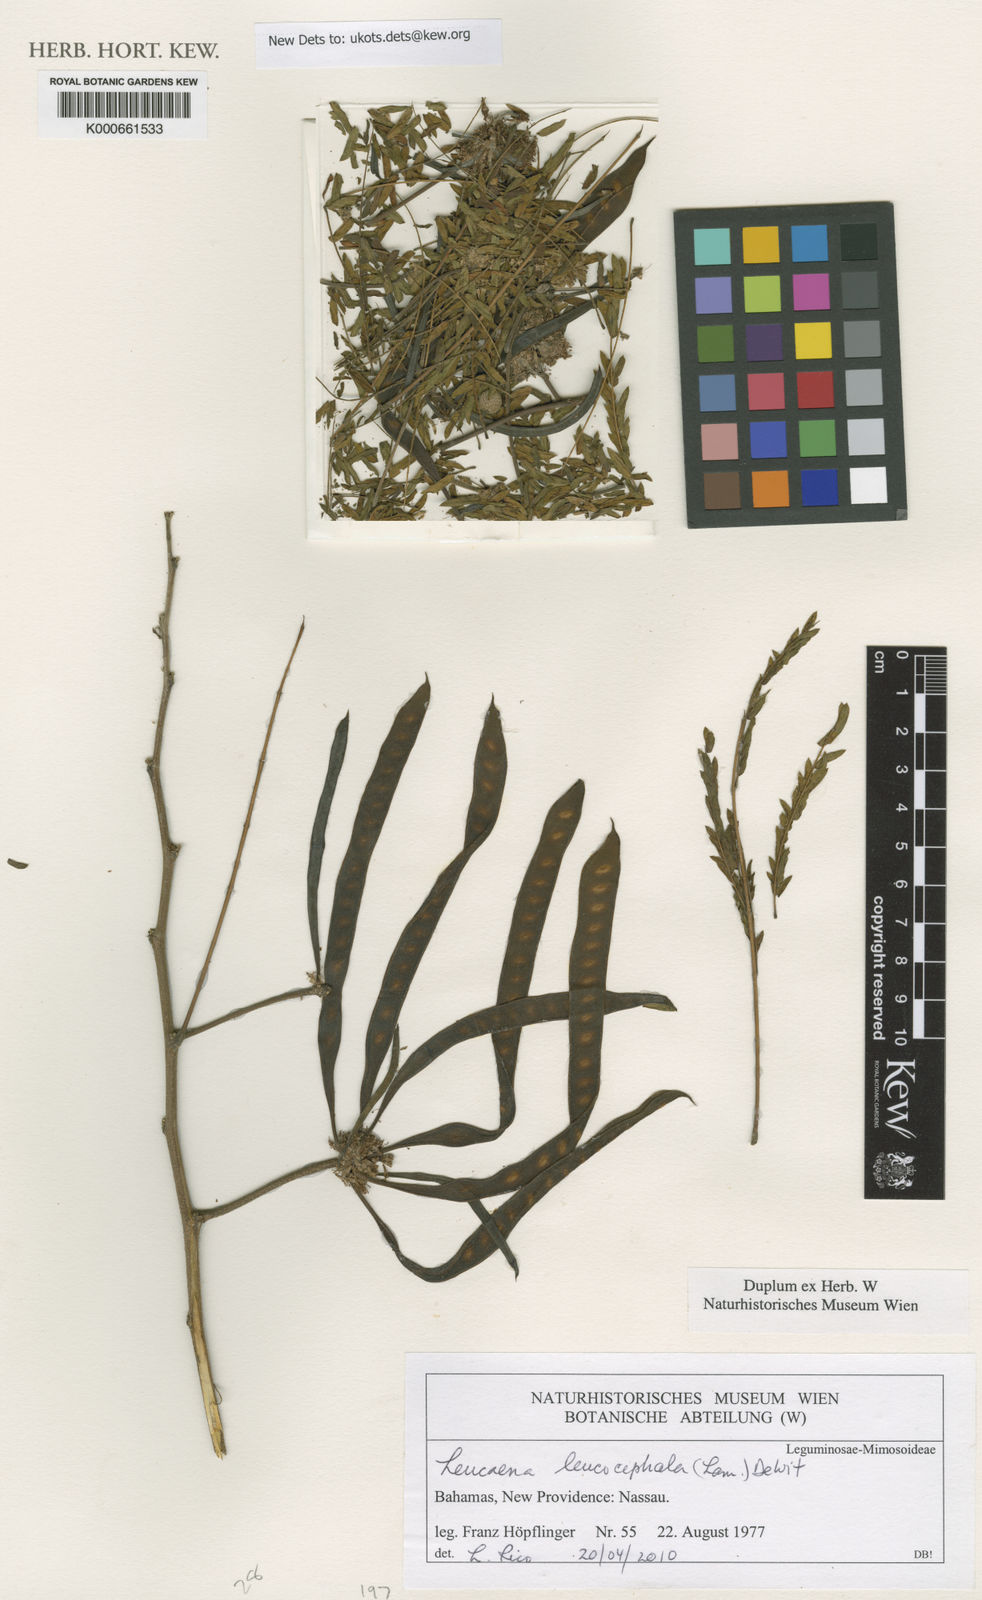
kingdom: Plantae
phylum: Tracheophyta
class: Magnoliopsida
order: Fabales
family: Fabaceae
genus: Leucaena
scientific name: Leucaena leucocephala
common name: White leadtree
